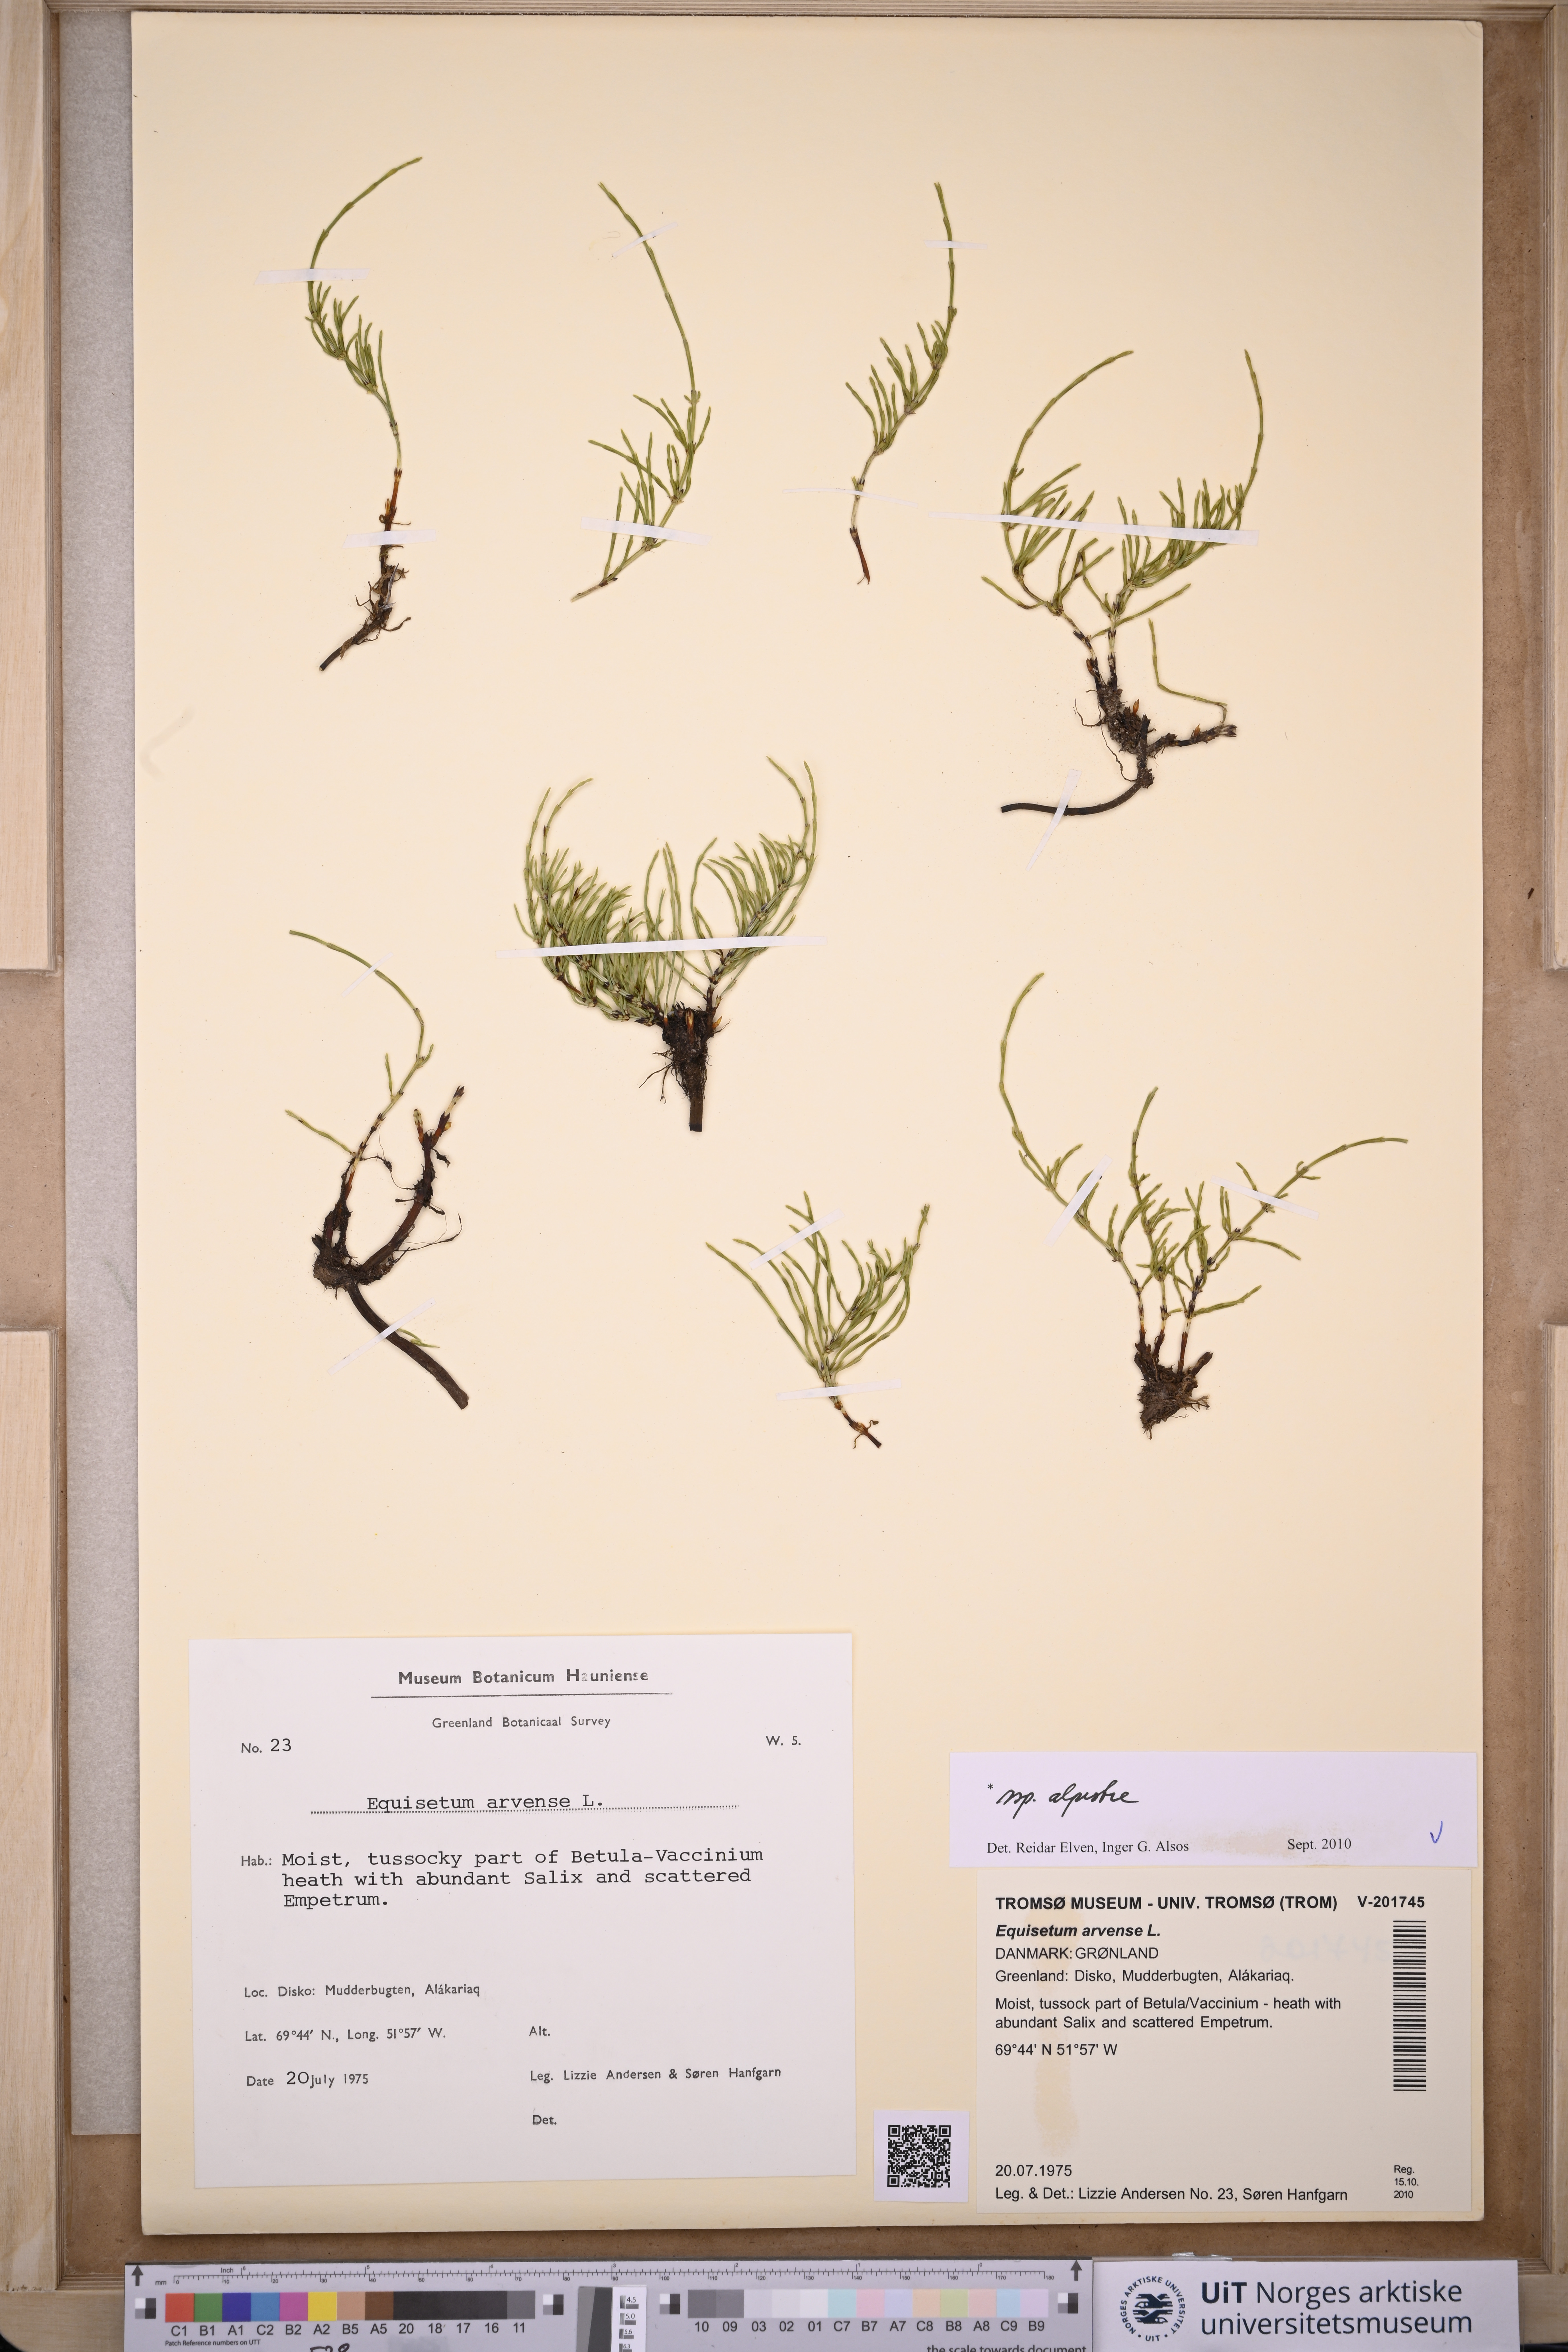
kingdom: Plantae
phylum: Tracheophyta
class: Polypodiopsida
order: Equisetales
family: Equisetaceae
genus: Equisetum
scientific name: Equisetum arvense
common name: Field horsetail
